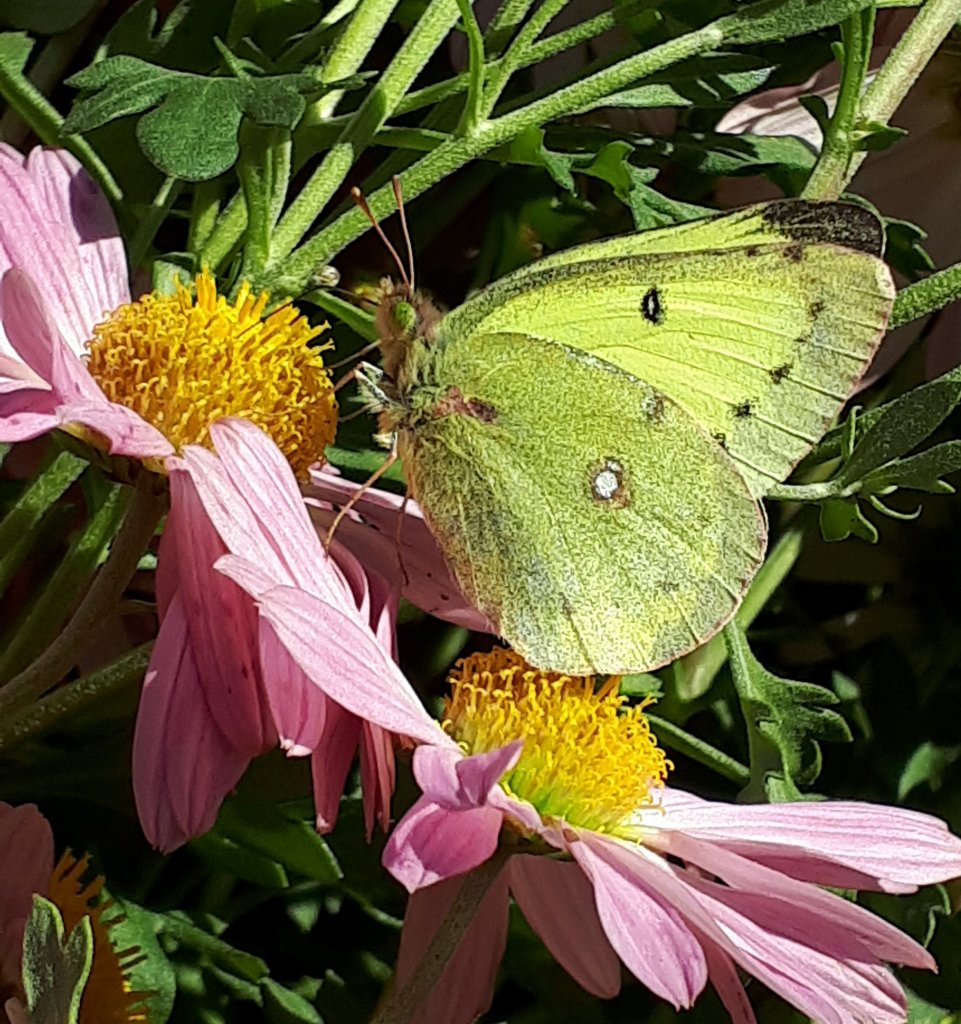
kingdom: Animalia
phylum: Arthropoda
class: Insecta
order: Lepidoptera
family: Pieridae
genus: Colias
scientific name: Colias philodice
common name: Clouded Sulphur
